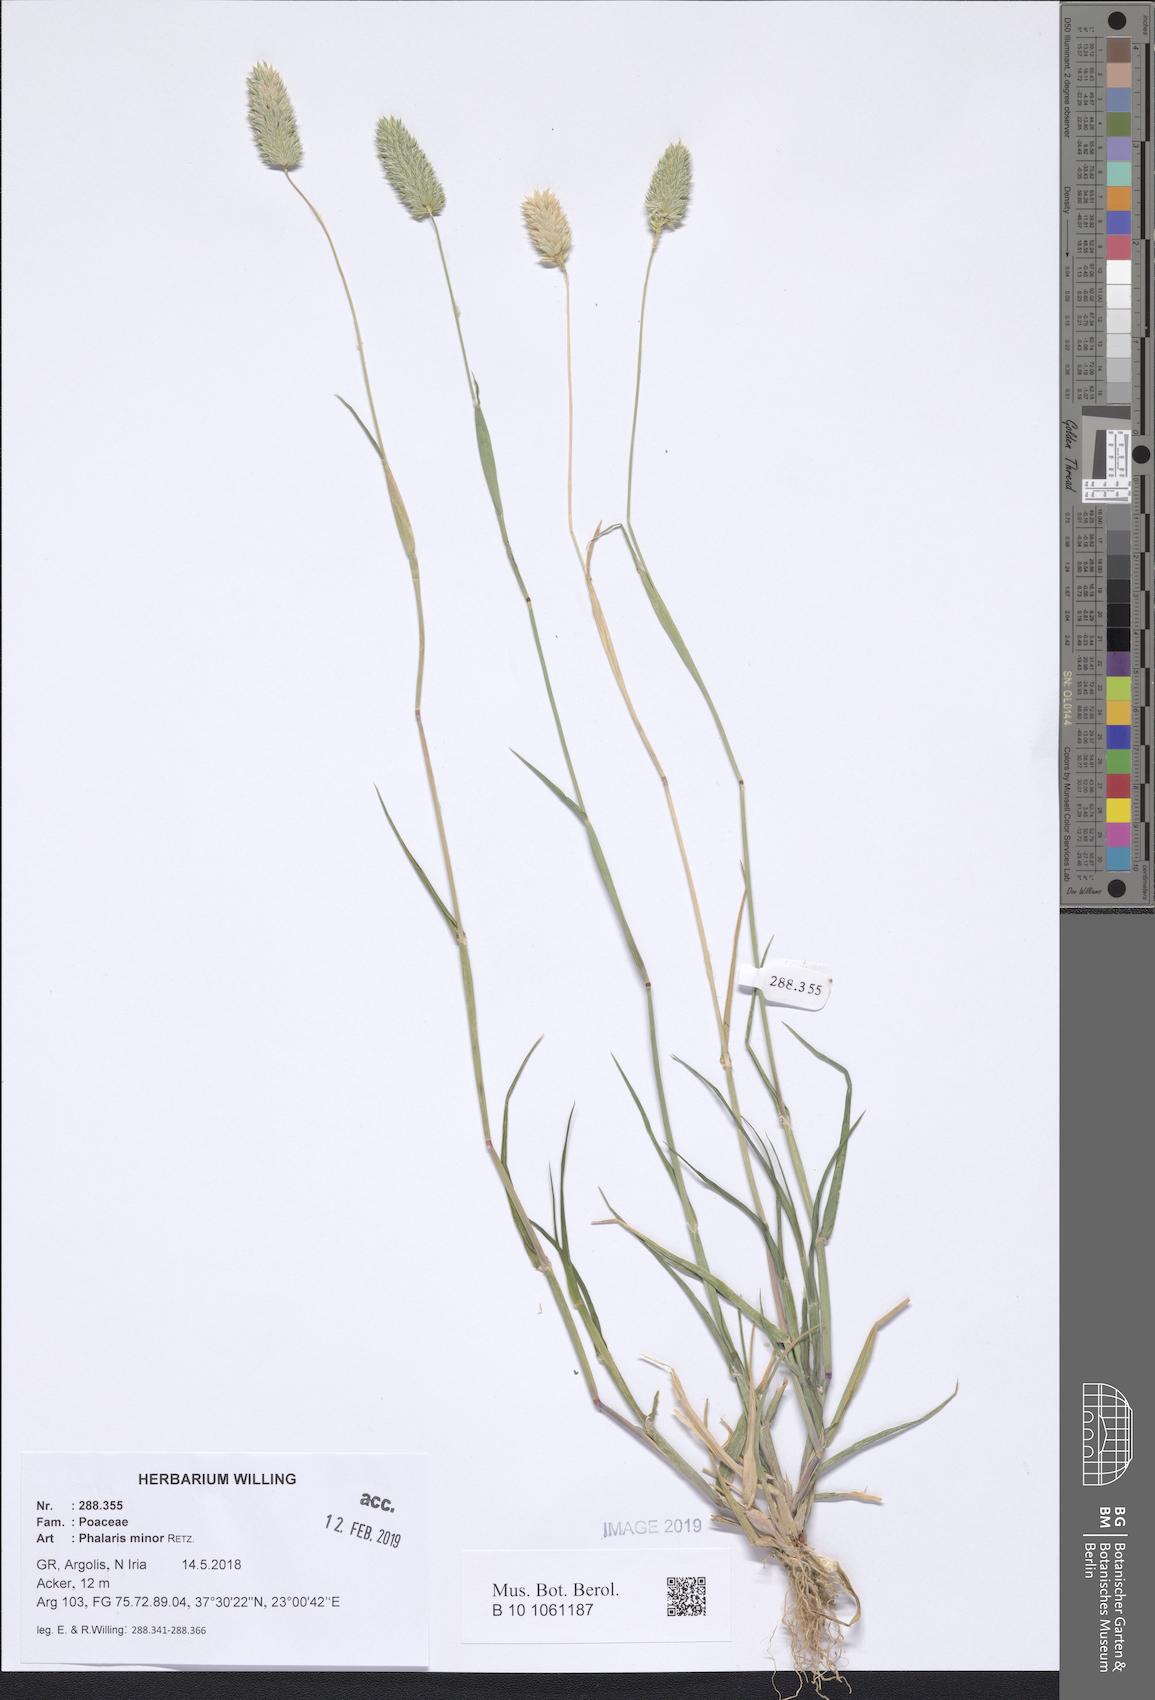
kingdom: Plantae
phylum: Tracheophyta
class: Liliopsida
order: Poales
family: Poaceae
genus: Phalaris
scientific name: Phalaris minor
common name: Littleseed canarygrass
